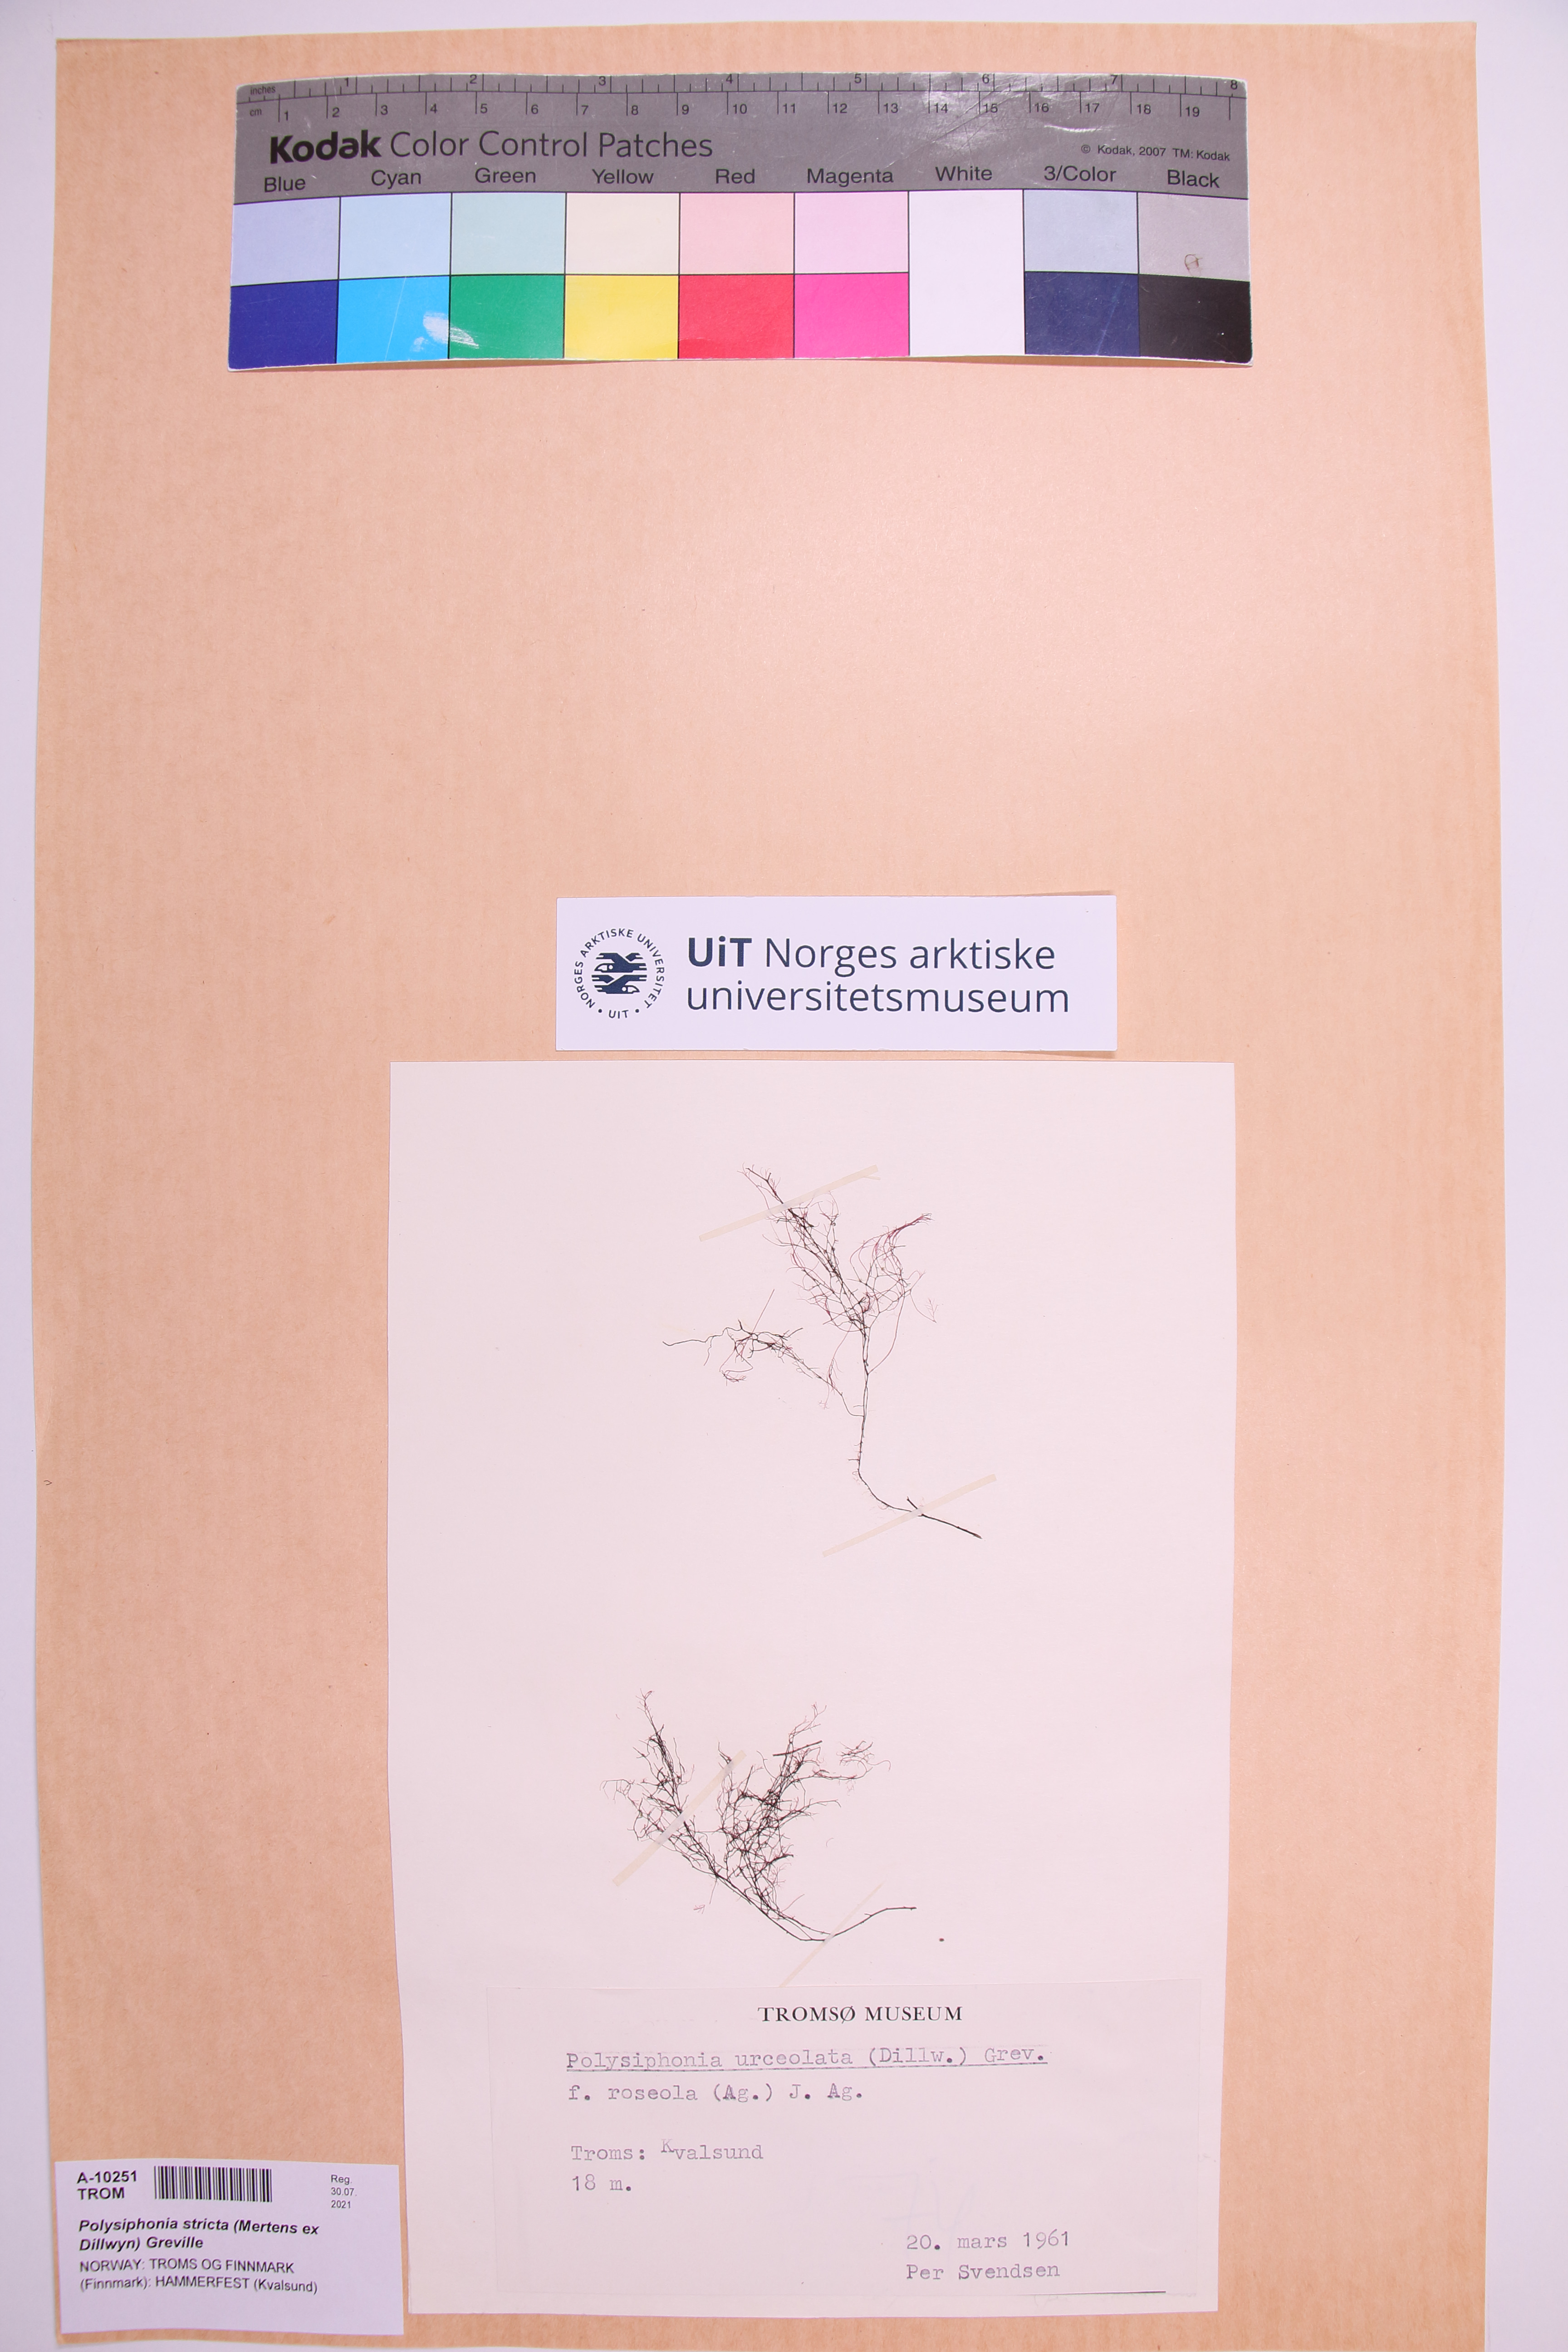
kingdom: Plantae
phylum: Rhodophyta
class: Florideophyceae
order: Ceramiales
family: Rhodomelaceae
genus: Polysiphonia
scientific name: Polysiphonia stricta
